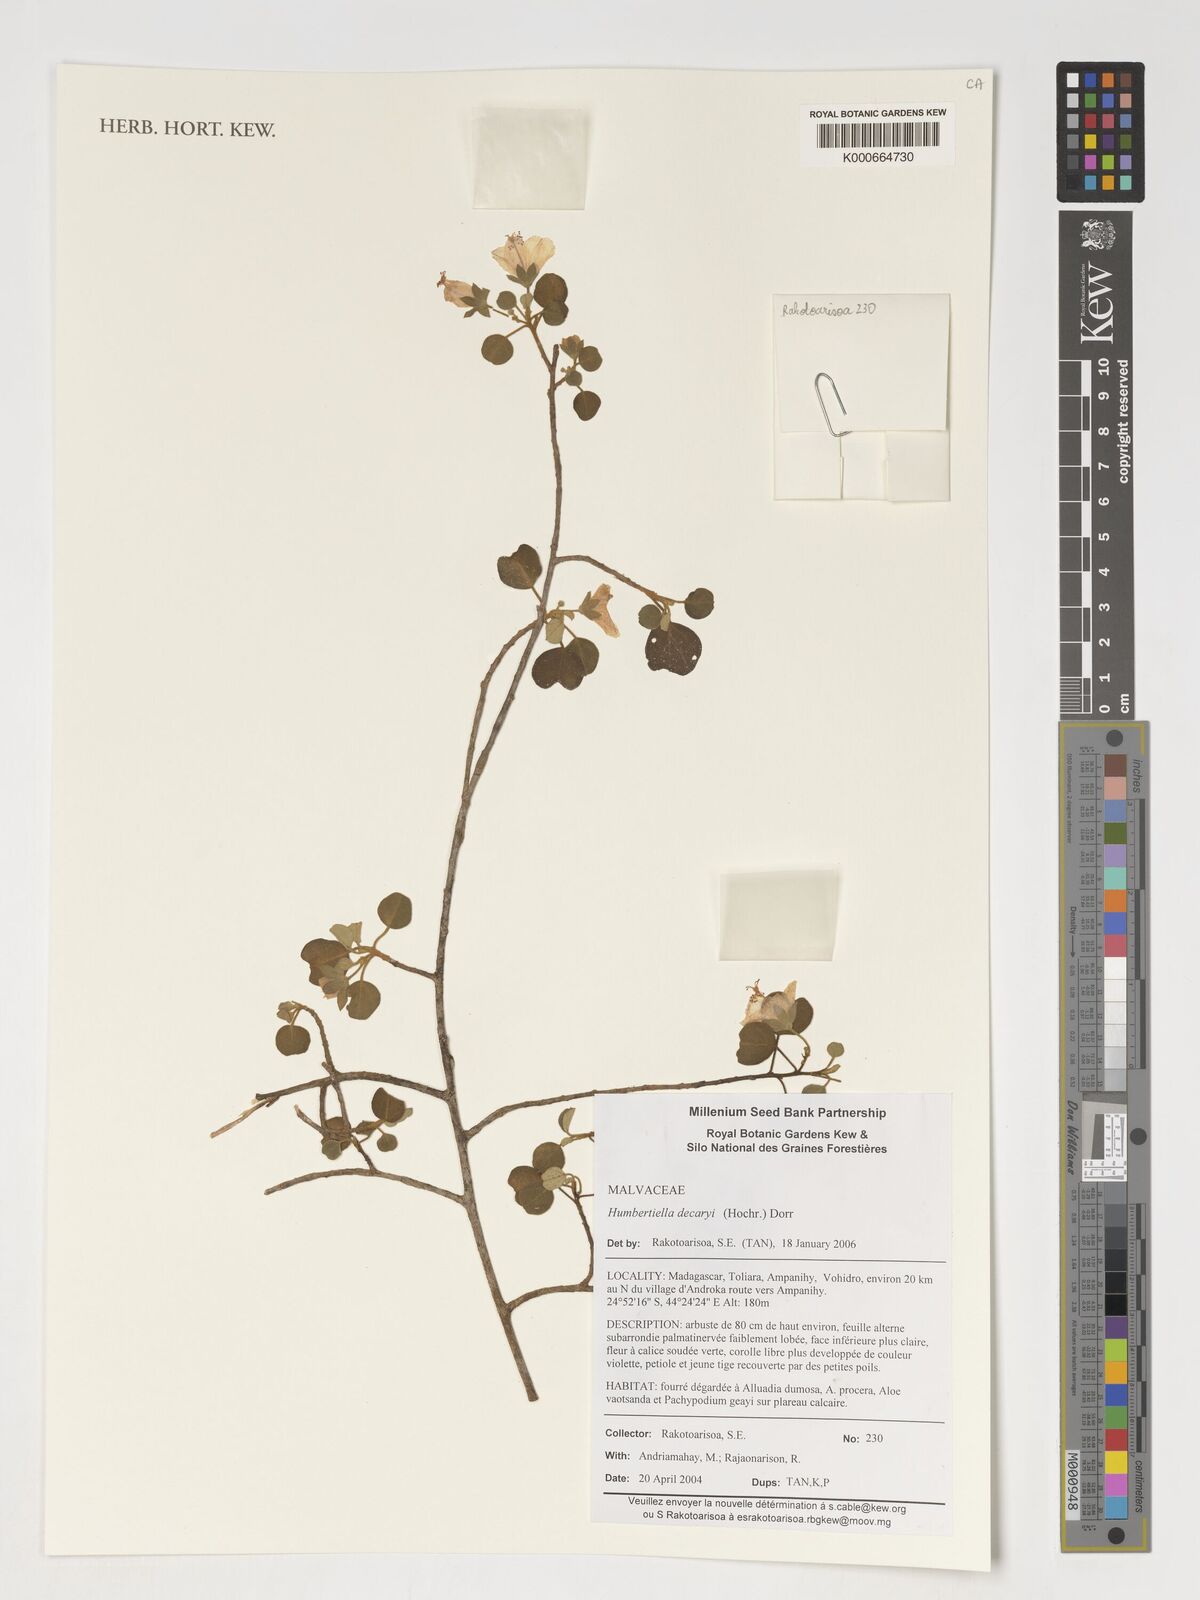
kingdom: Plantae
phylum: Tracheophyta
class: Magnoliopsida
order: Malvales
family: Malvaceae
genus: Humbertiella
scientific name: Humbertiella decaryi
